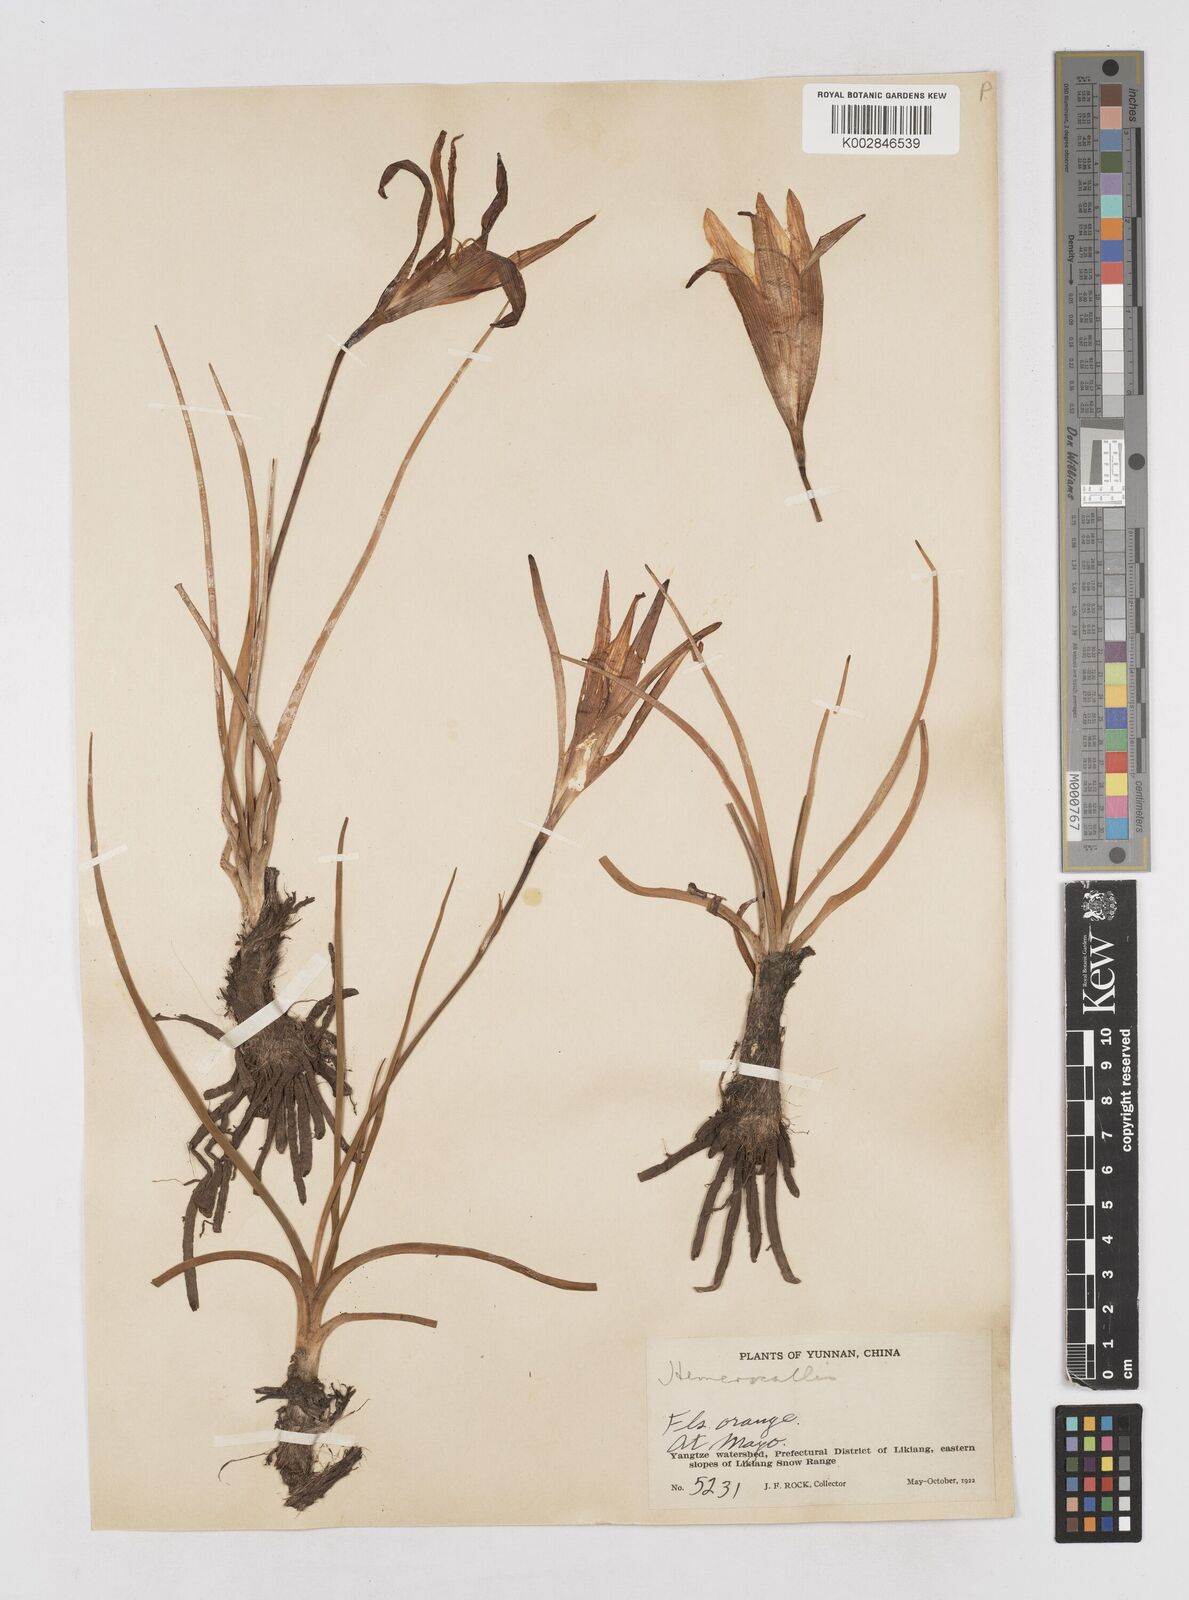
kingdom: Plantae
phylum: Tracheophyta
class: Liliopsida
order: Asparagales
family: Asphodelaceae
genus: Hemerocallis
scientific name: Hemerocallis nana
